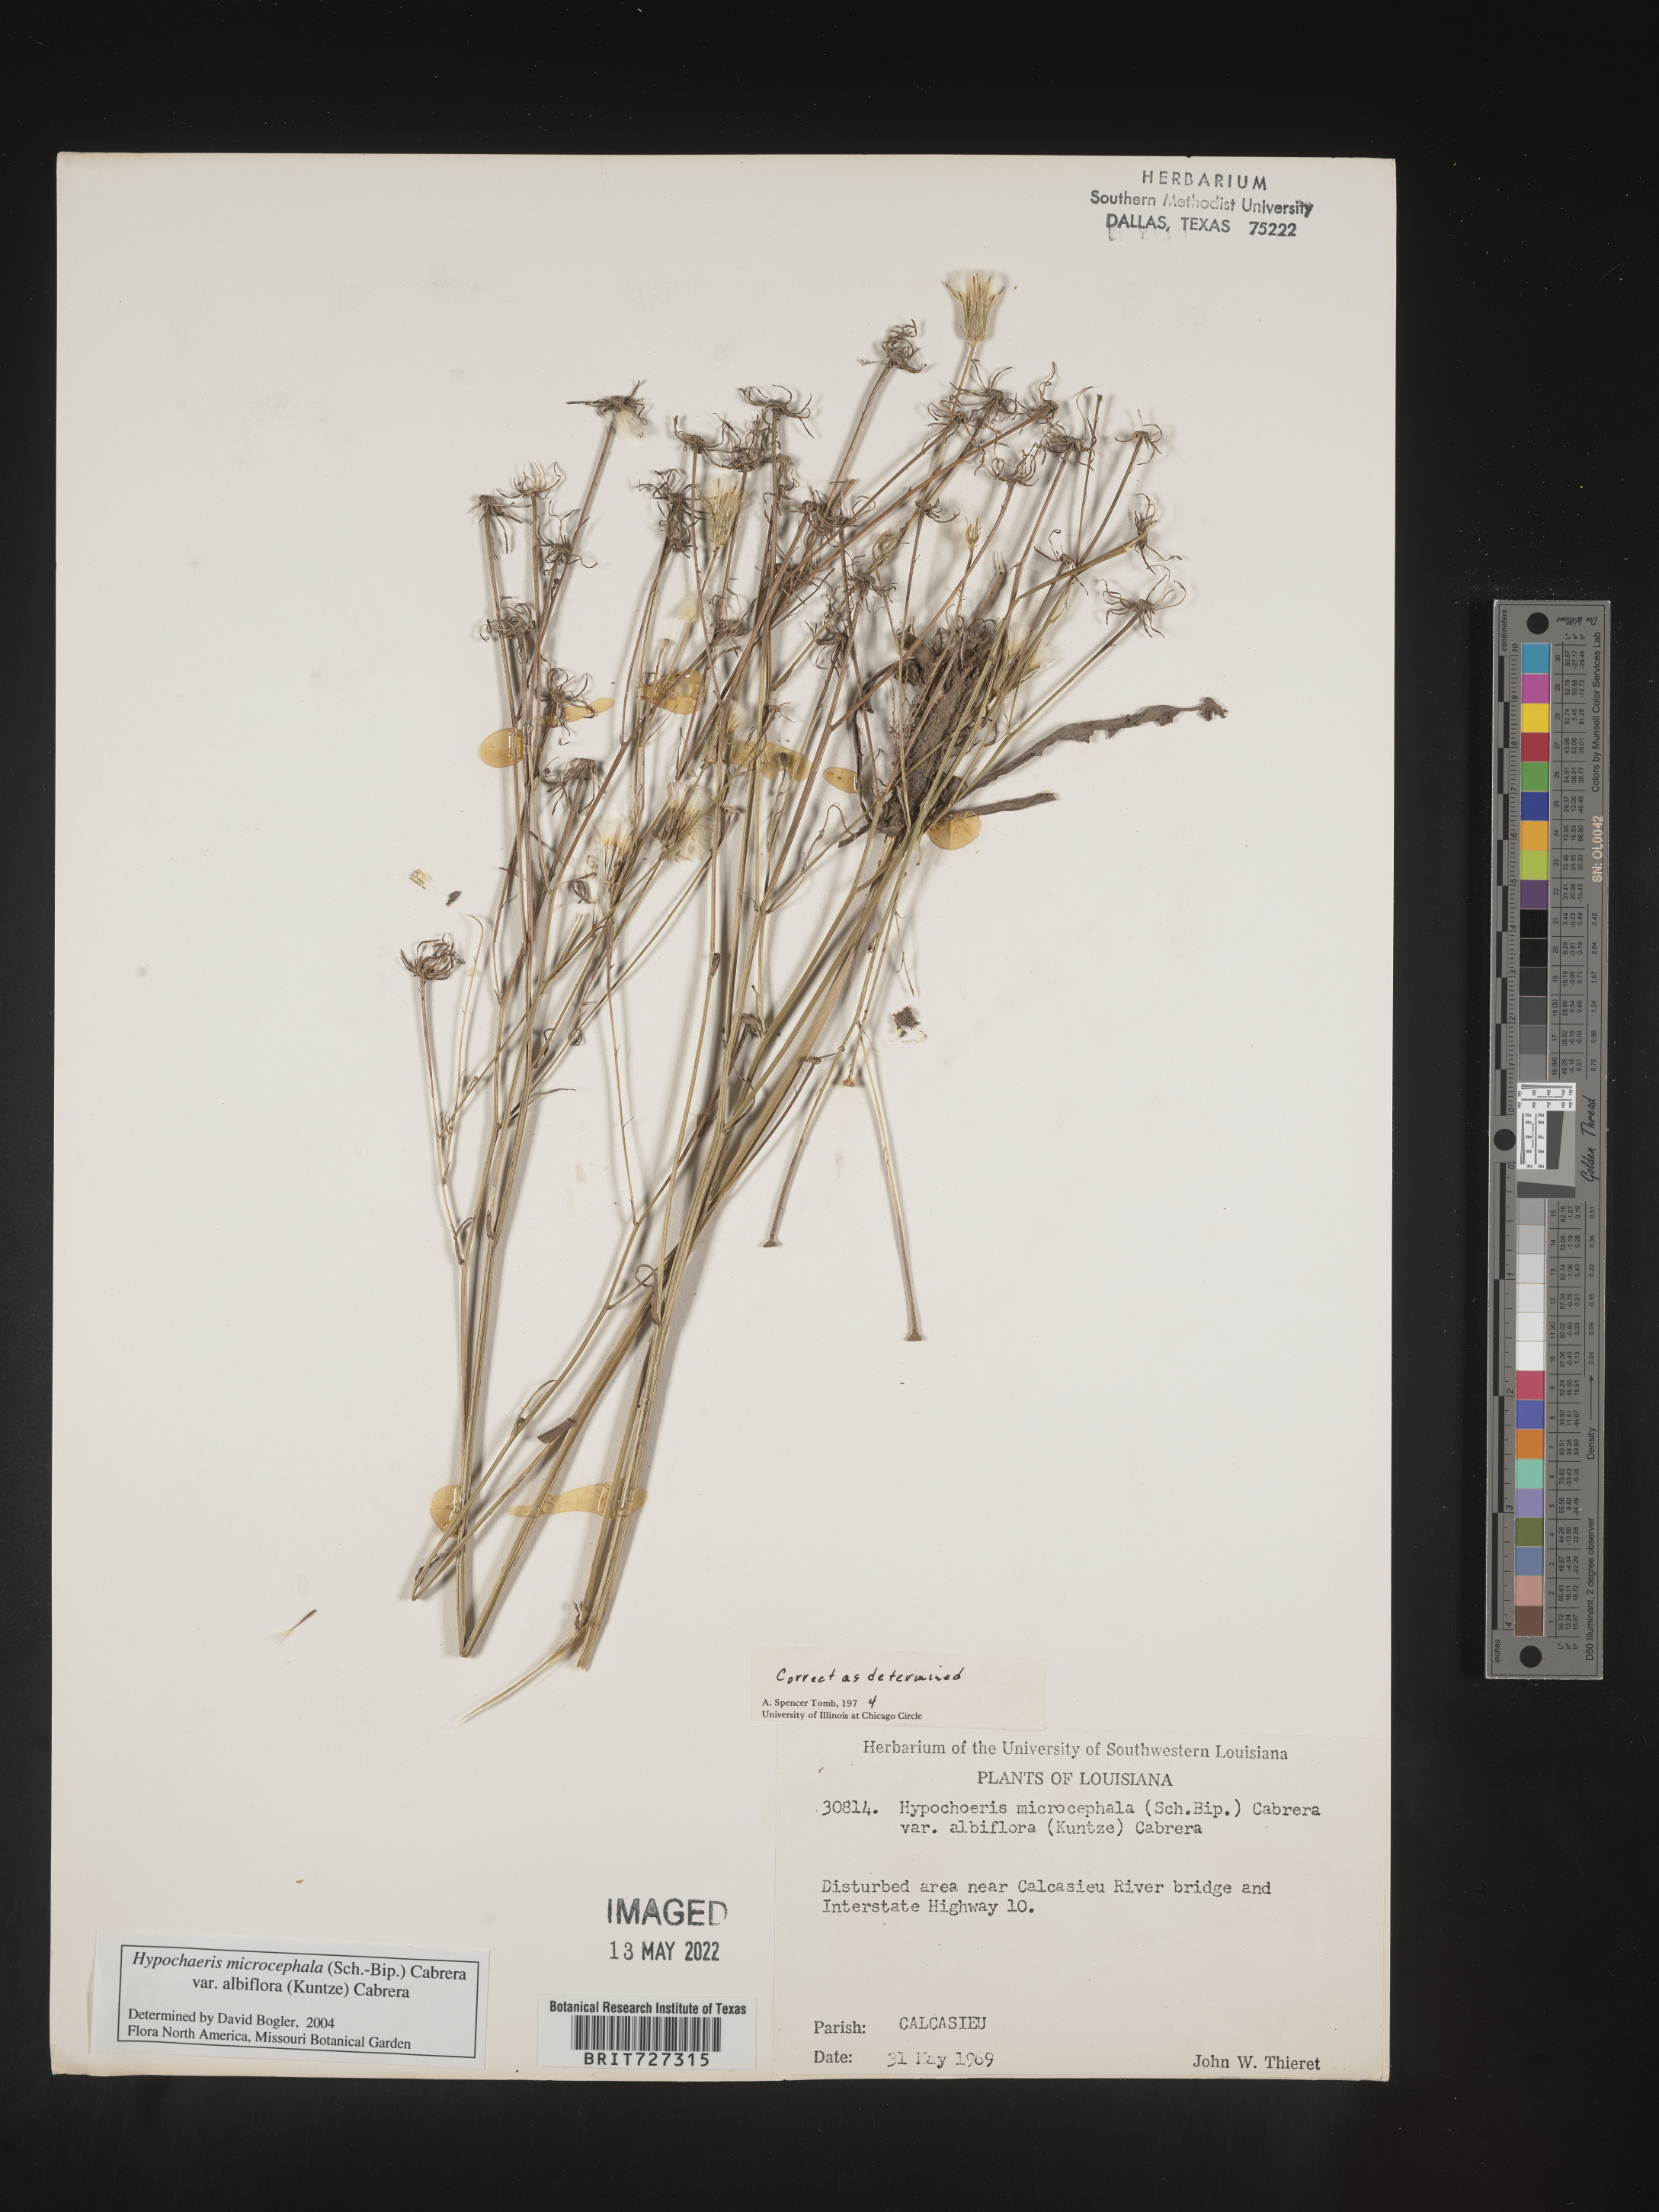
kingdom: Plantae
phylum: Tracheophyta
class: Magnoliopsida
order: Asterales
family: Asteraceae
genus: Hypochaeris
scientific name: Hypochaeris microcephala
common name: White flatweed
